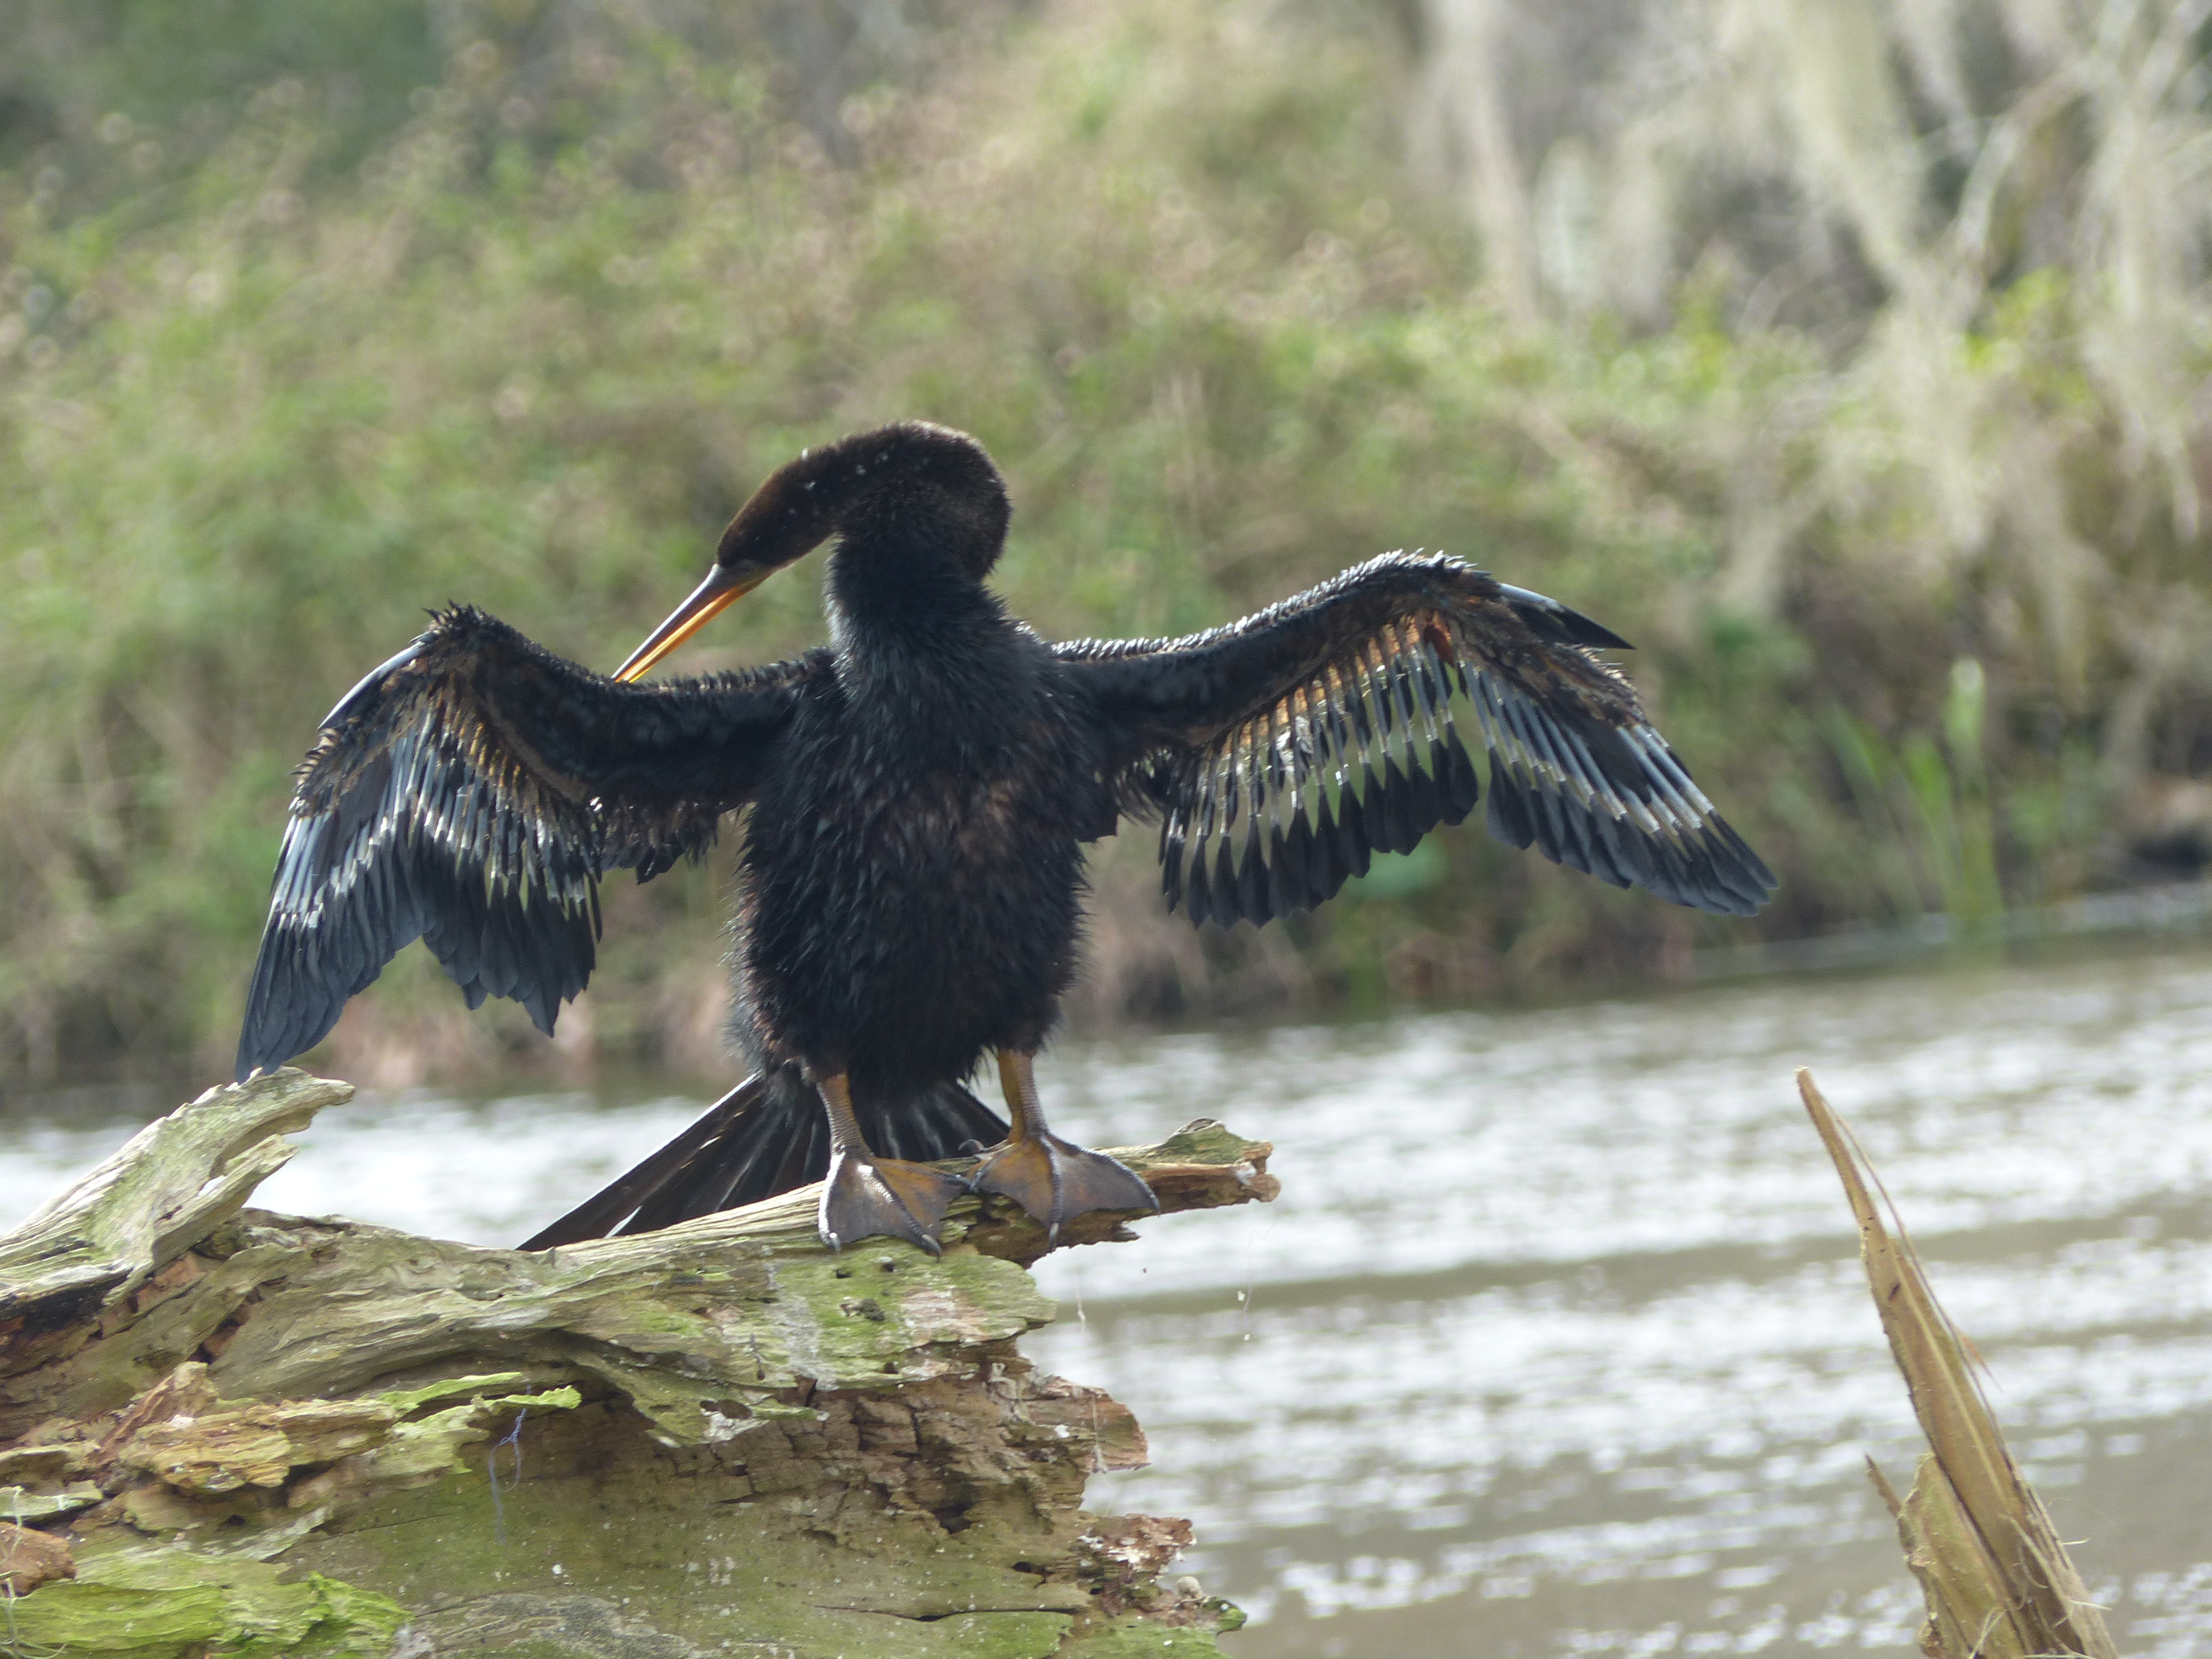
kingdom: Animalia
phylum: Chordata
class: Aves
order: Suliformes
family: Anhingidae
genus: Anhinga
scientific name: Anhinga anhinga
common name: Anhinga
